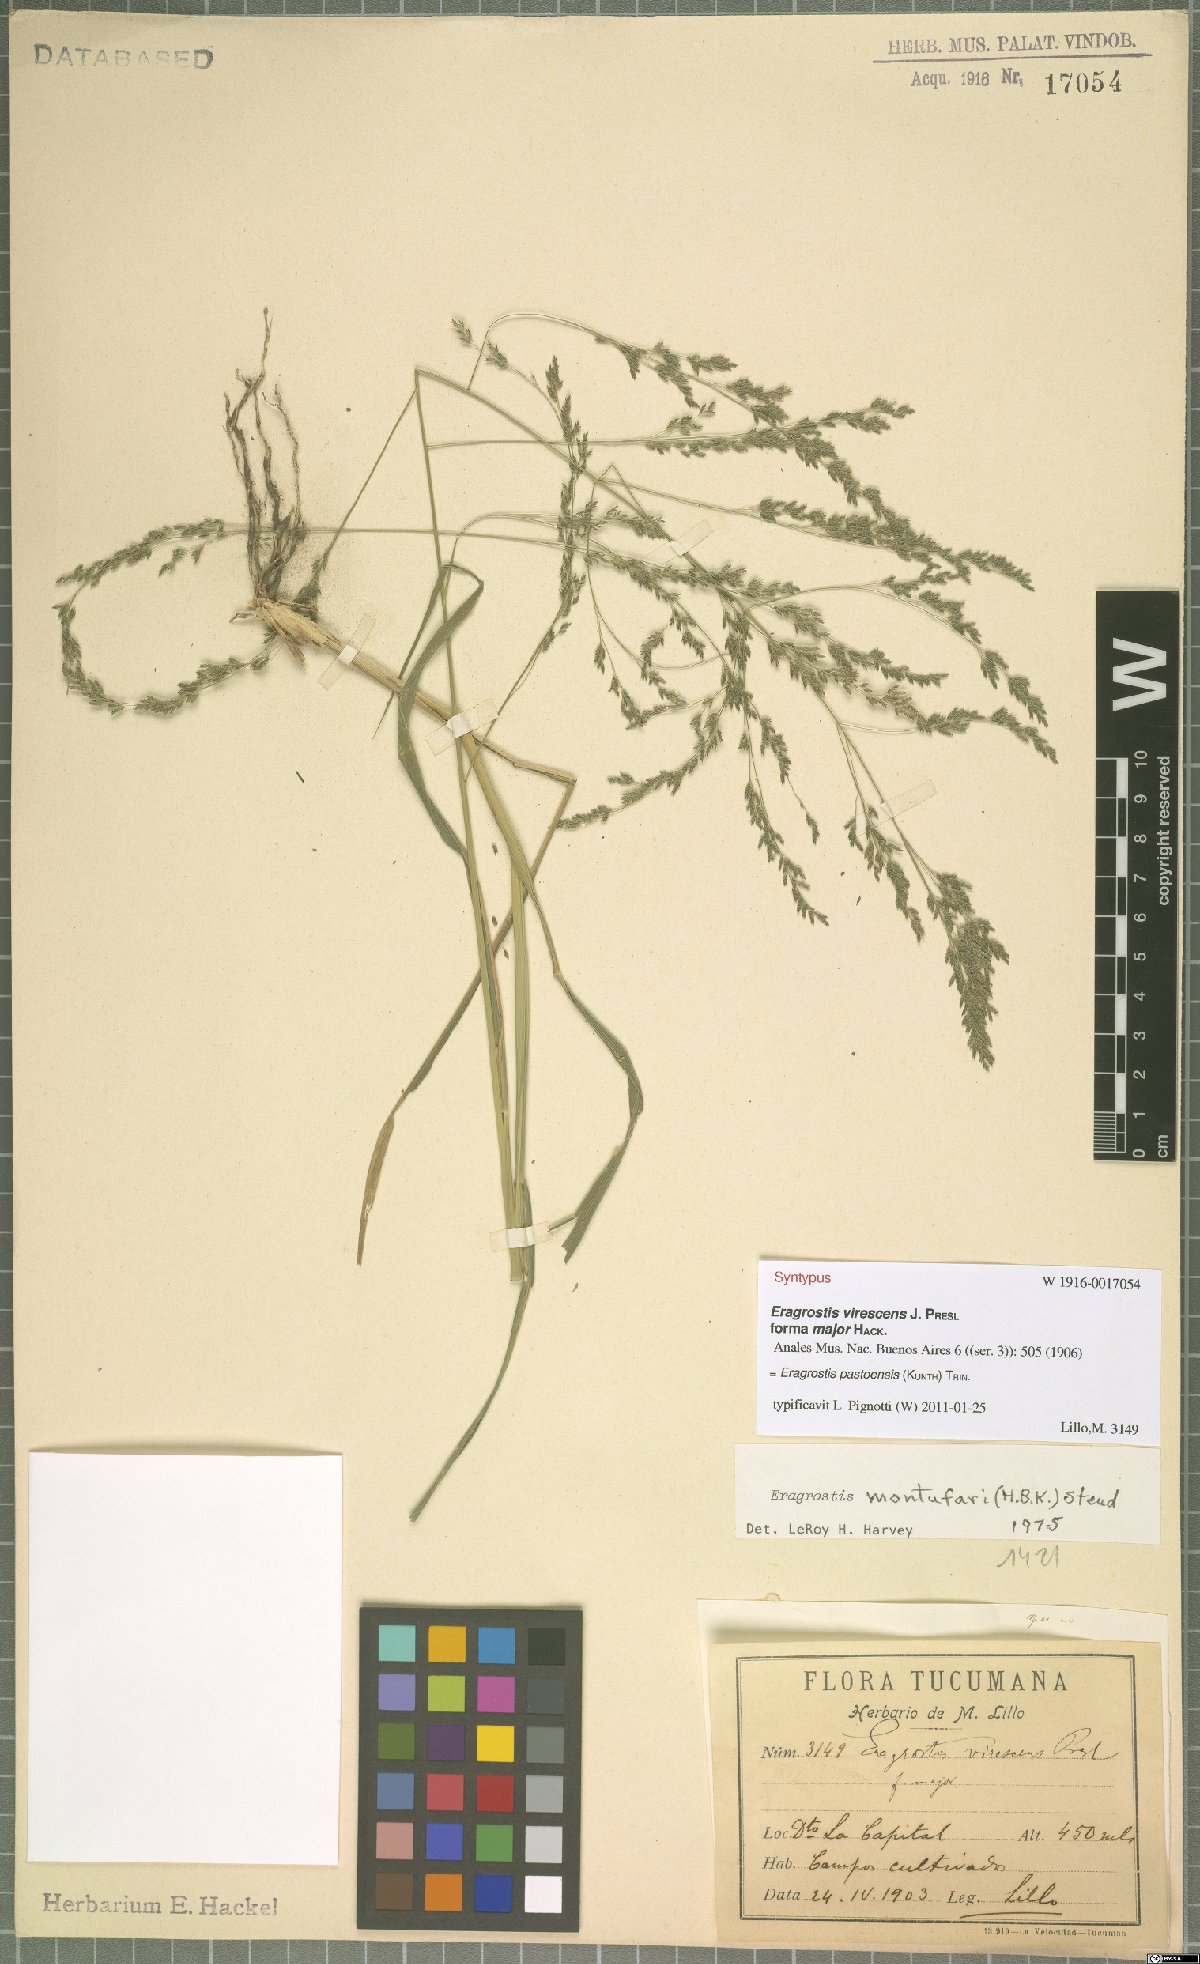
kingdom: Plantae
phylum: Tracheophyta
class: Liliopsida
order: Poales
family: Poaceae
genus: Eragrostis
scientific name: Eragrostis pastoensis
